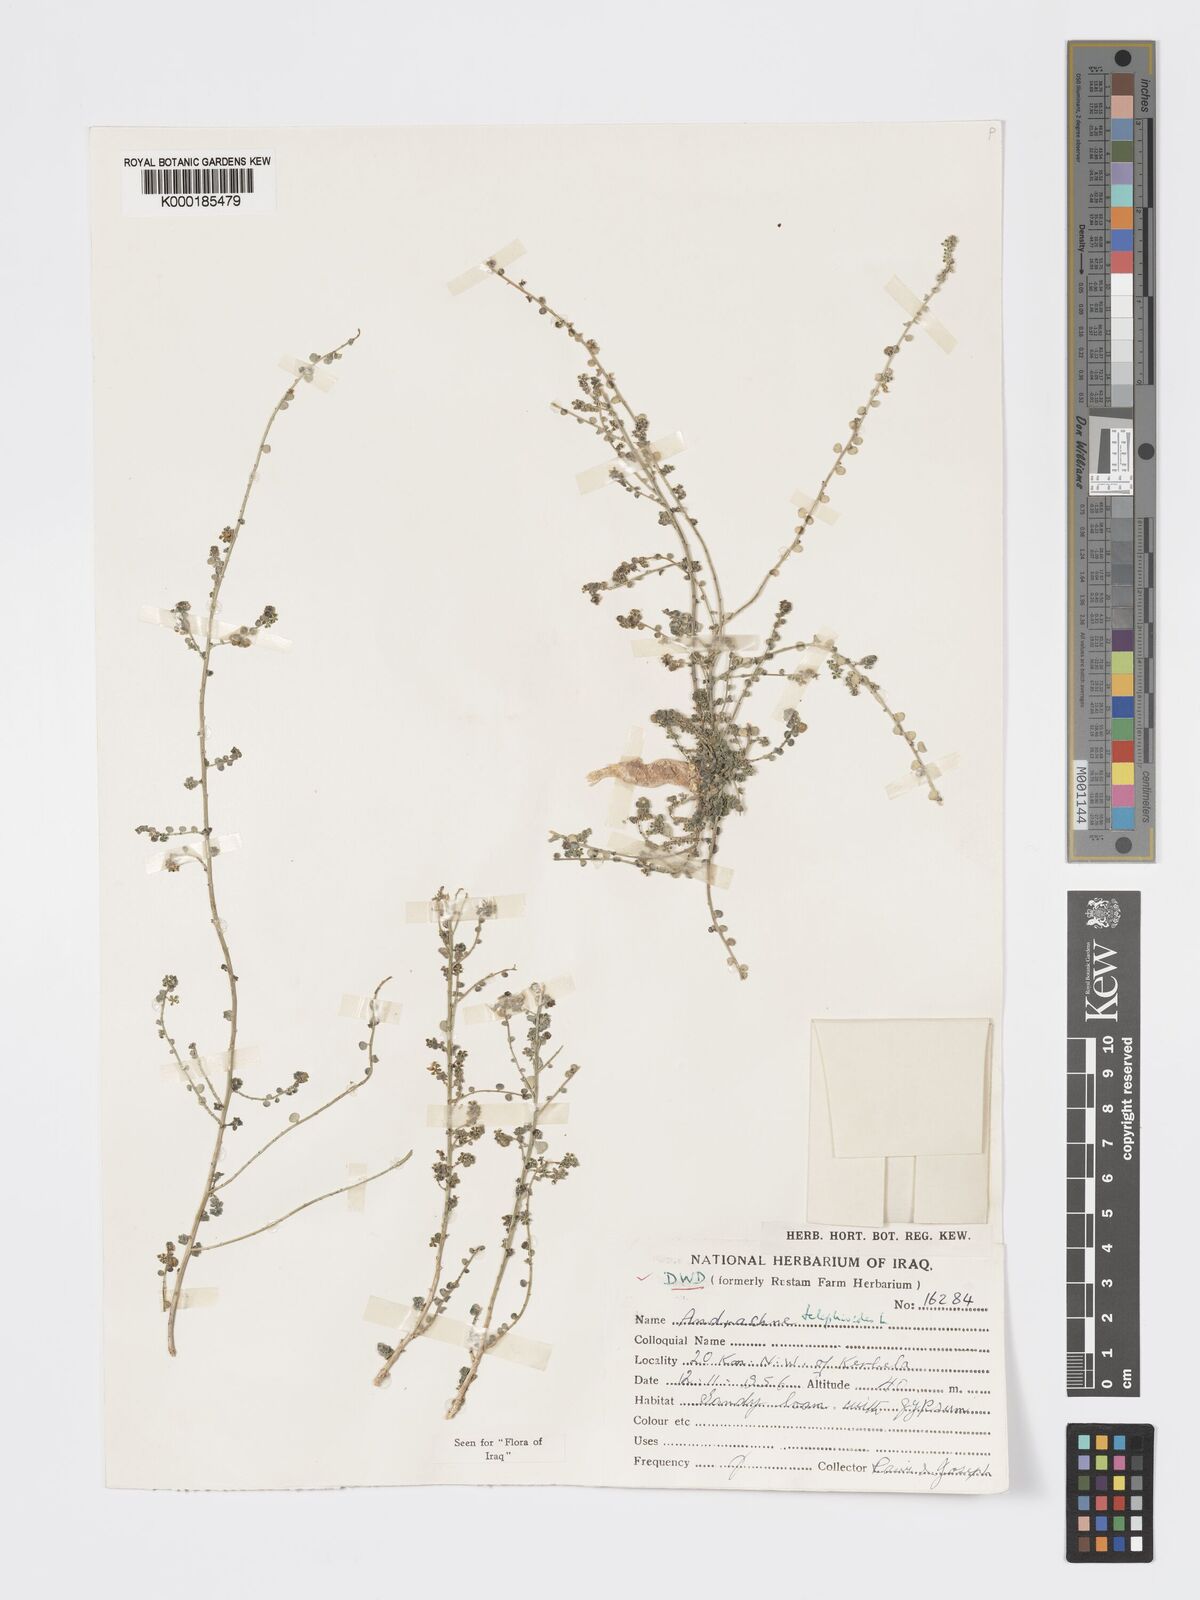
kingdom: Plantae
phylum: Tracheophyta
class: Magnoliopsida
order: Malpighiales
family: Phyllanthaceae
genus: Andrachne
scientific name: Andrachne telephioides
